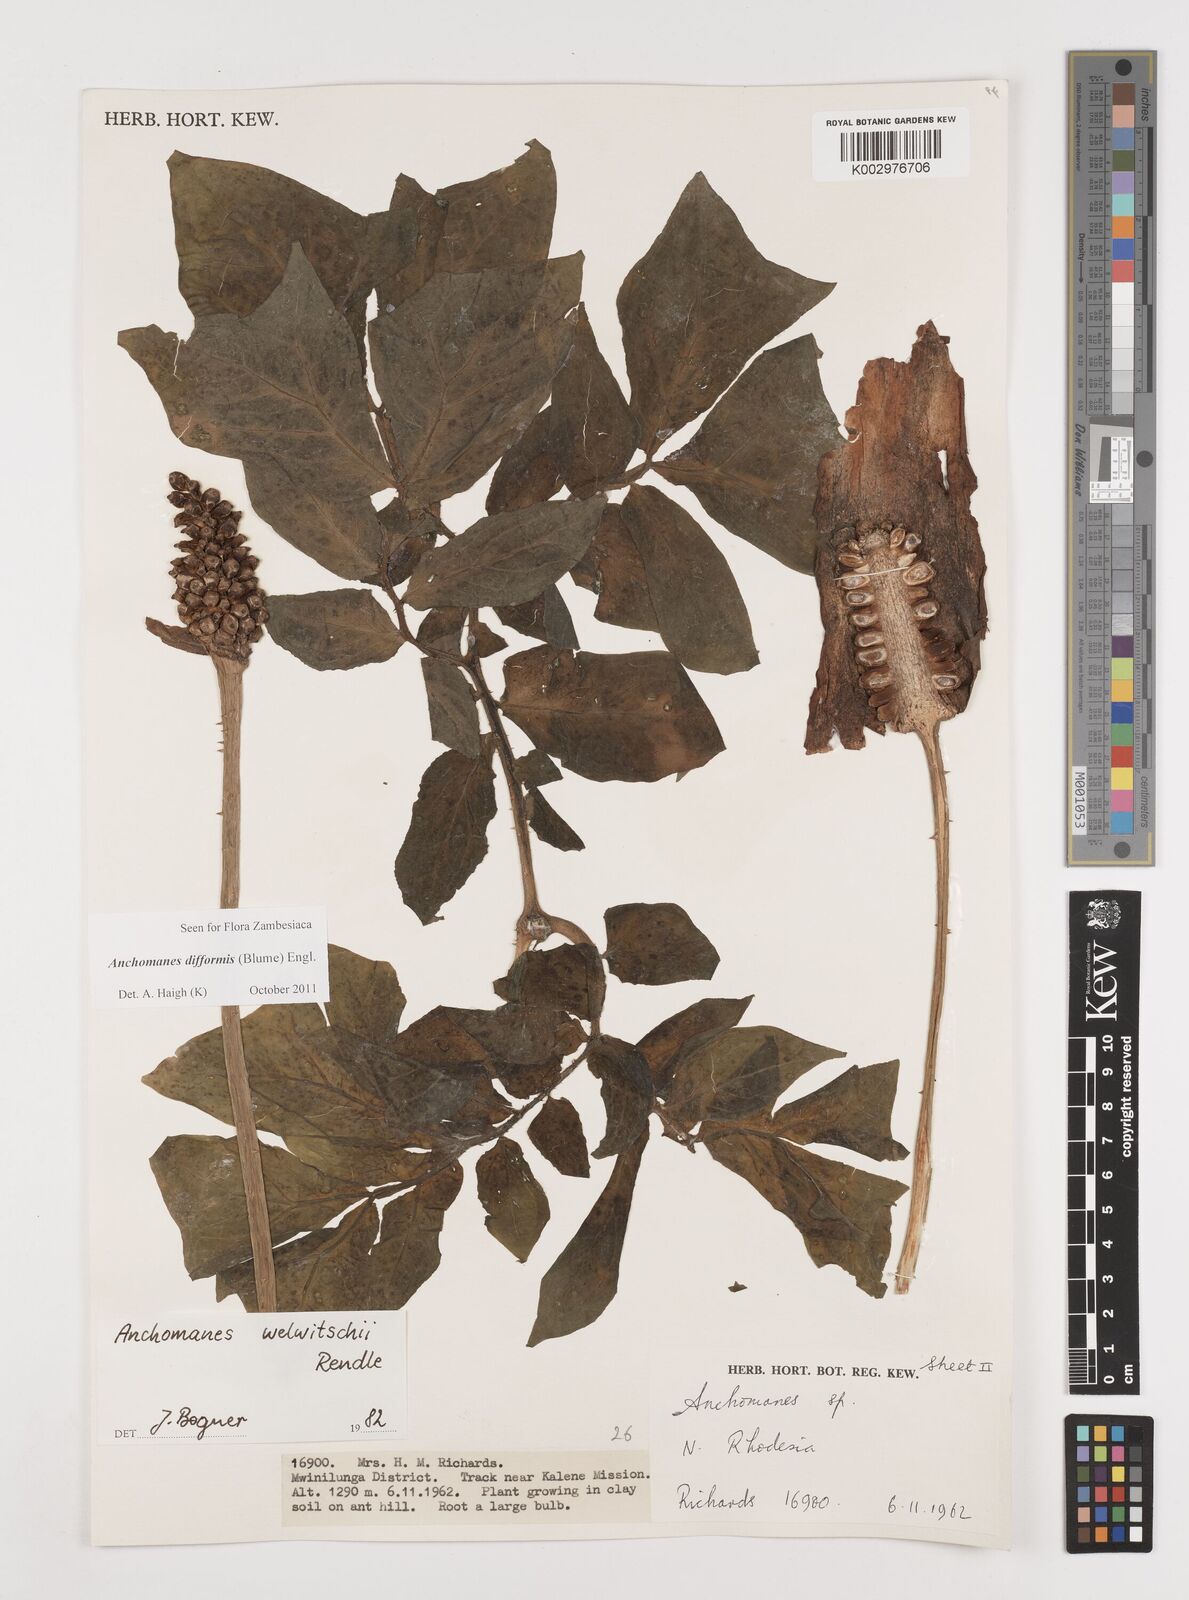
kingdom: Plantae
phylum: Tracheophyta
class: Liliopsida
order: Alismatales
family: Araceae
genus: Anchomanes
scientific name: Anchomanes difformis
